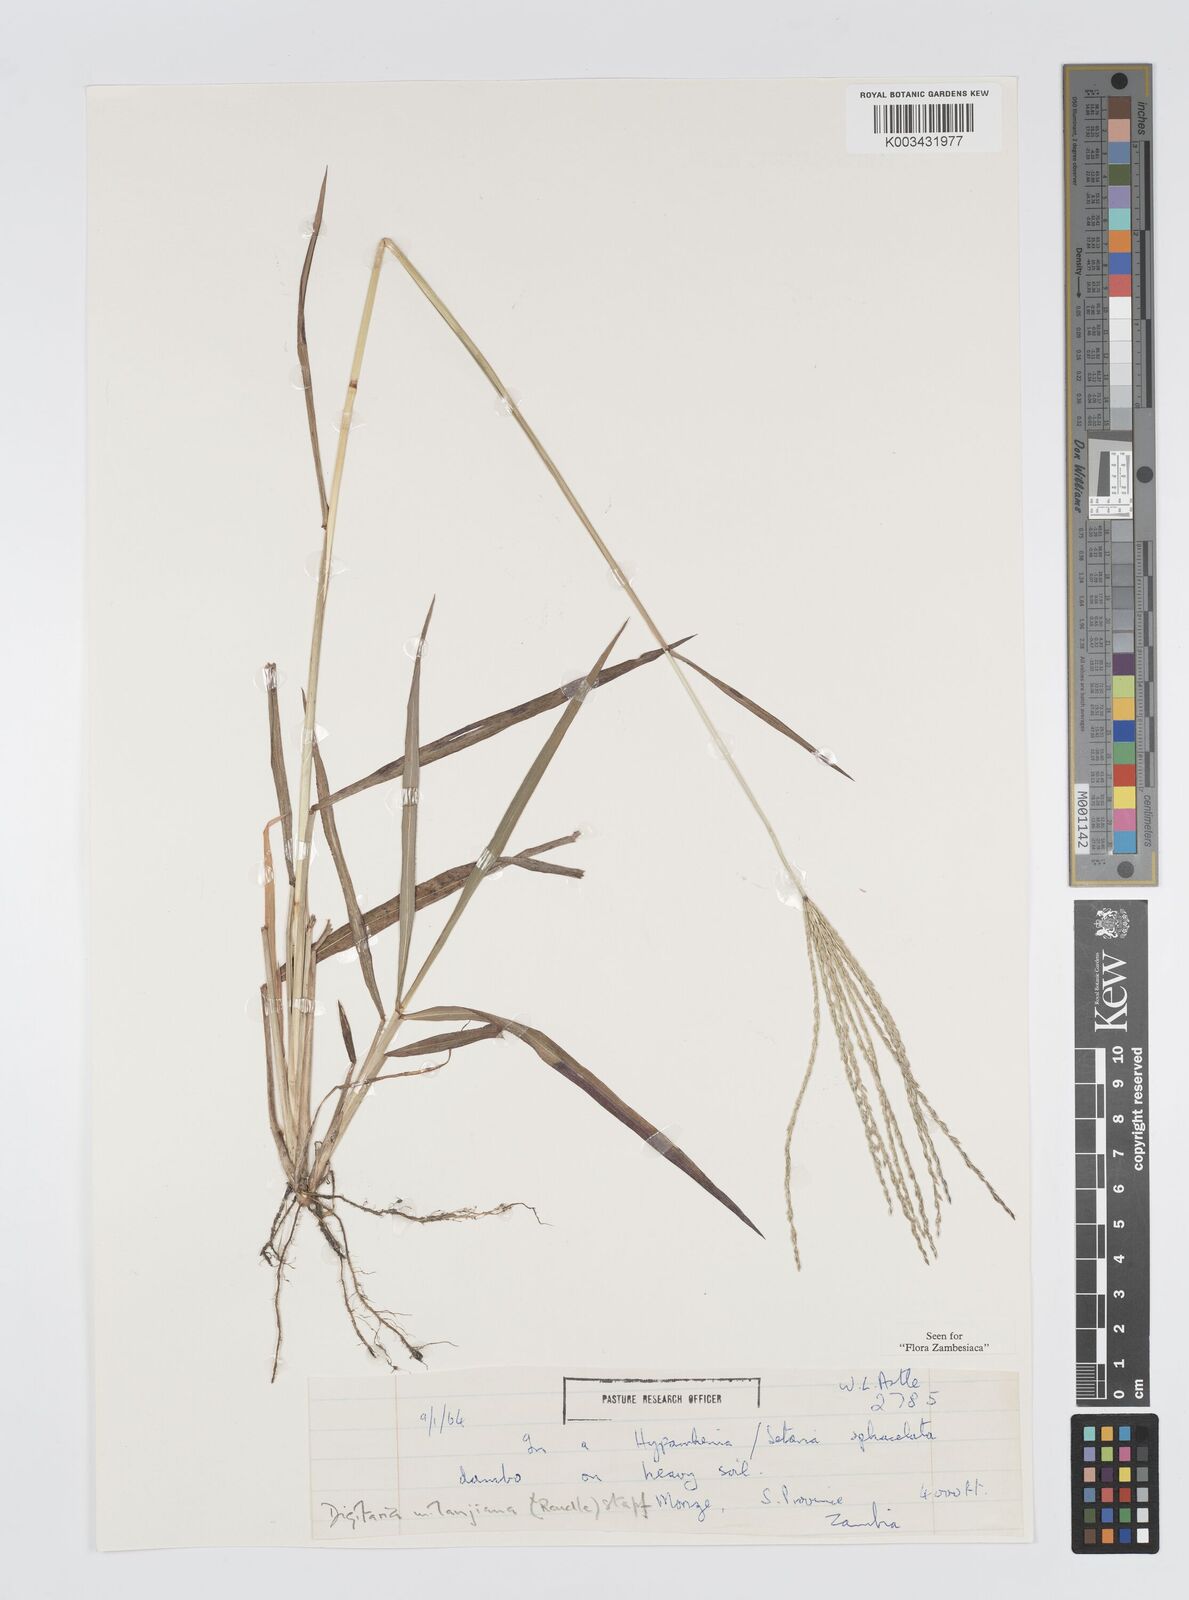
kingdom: Plantae
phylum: Tracheophyta
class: Liliopsida
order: Poales
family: Poaceae
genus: Digitaria
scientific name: Digitaria milanjiana
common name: Madagascar crabgrass
